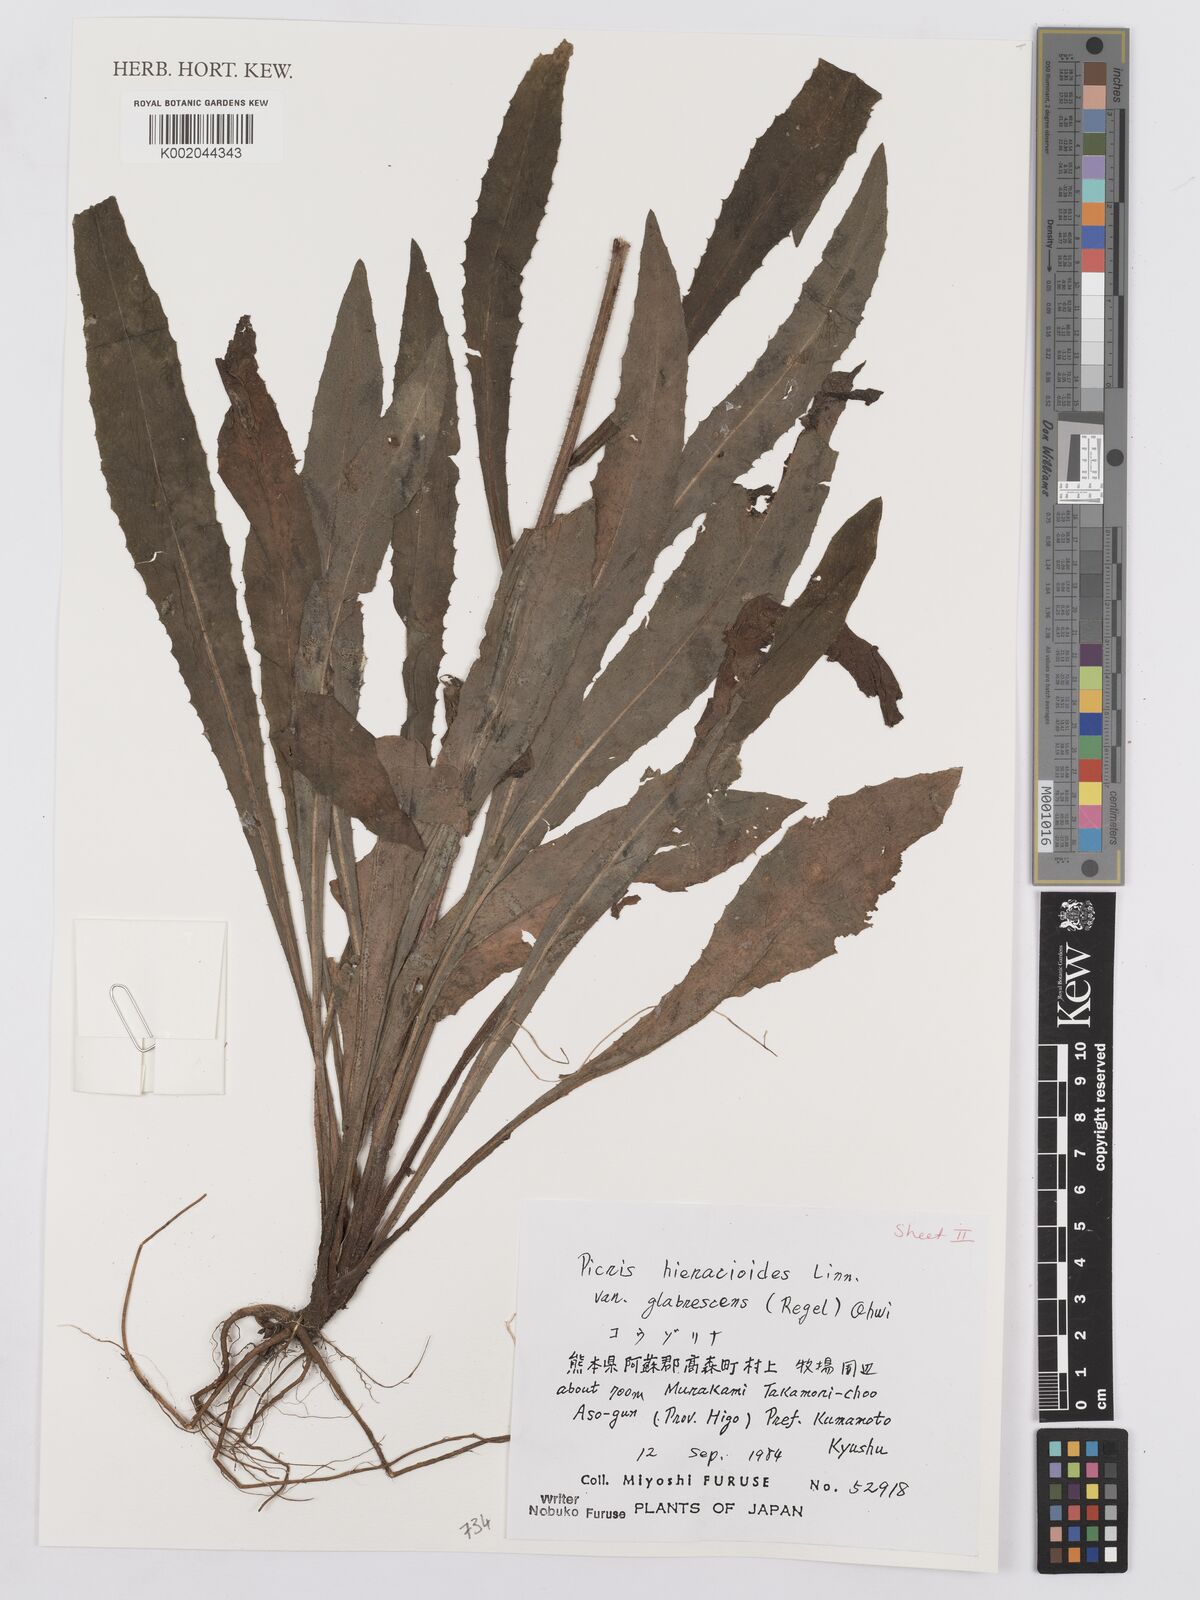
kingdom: Plantae
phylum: Tracheophyta
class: Magnoliopsida
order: Asterales
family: Asteraceae
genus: Picris
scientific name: Picris hieracioides
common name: Hawkweed oxtongue
